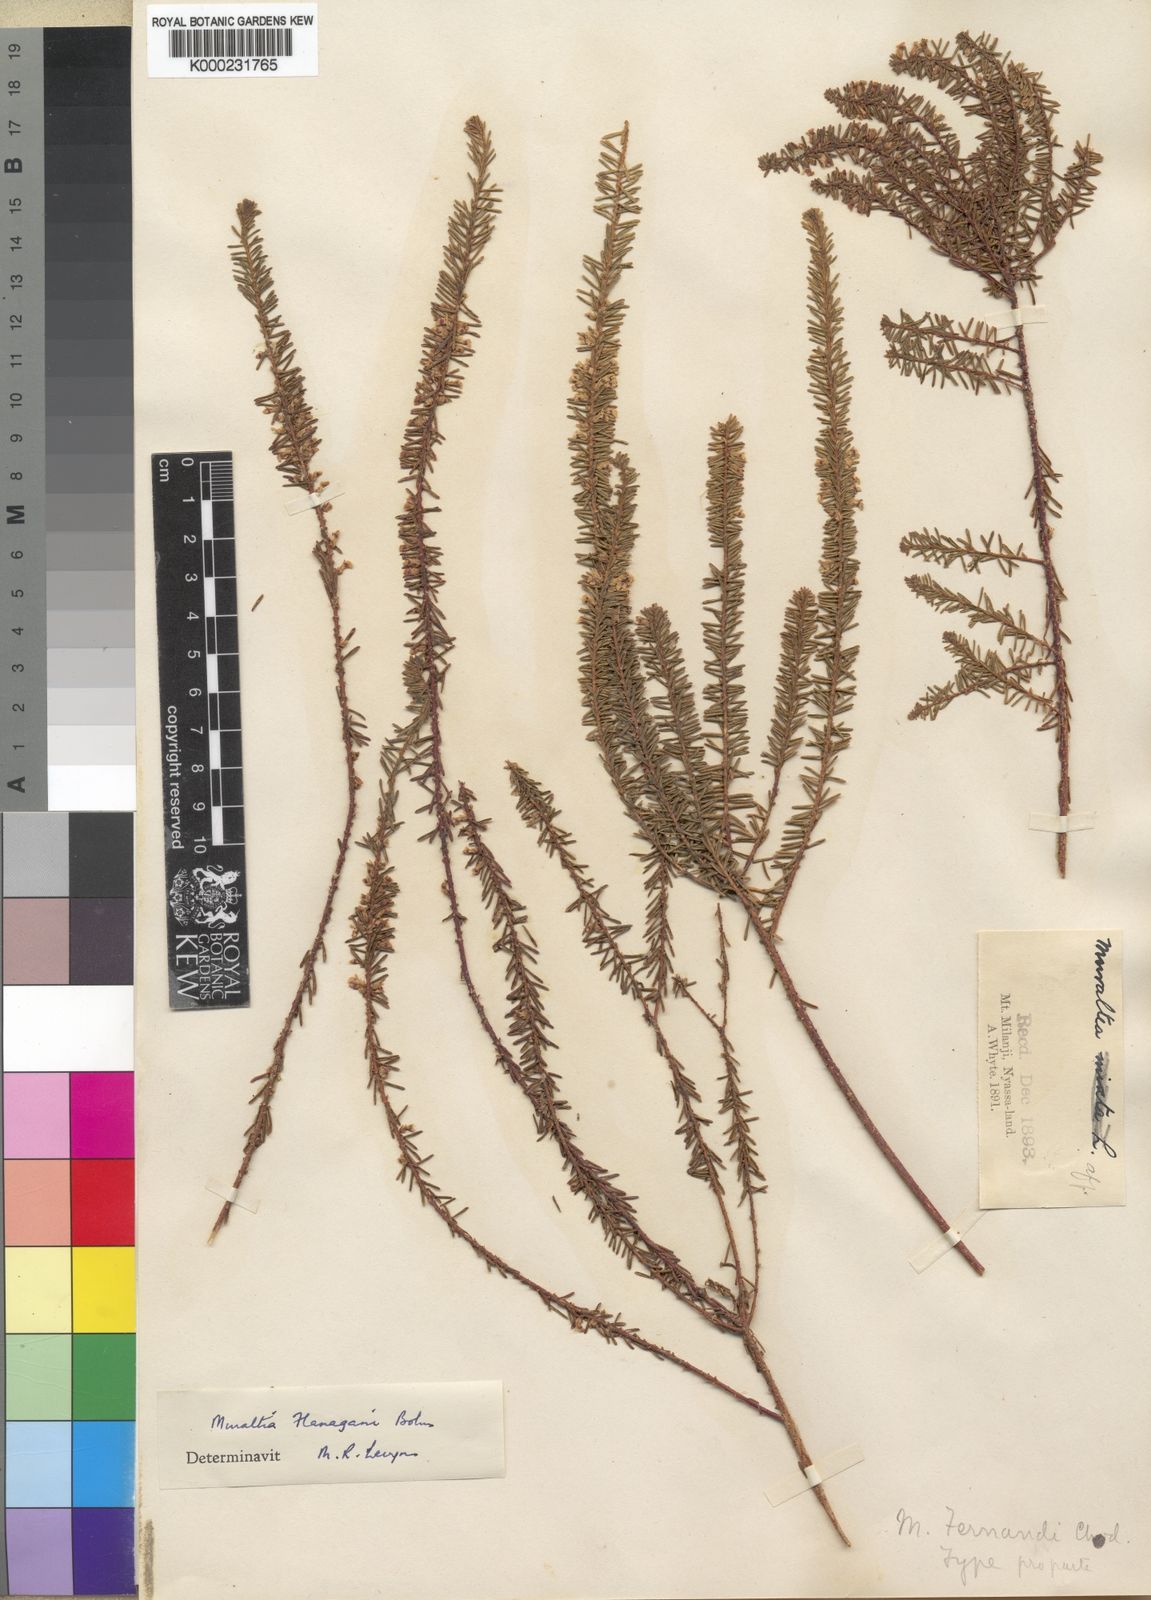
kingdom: Plantae
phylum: Tracheophyta
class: Magnoliopsida
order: Fabales
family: Polygalaceae
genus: Muraltia
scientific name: Muraltia flanaganii
